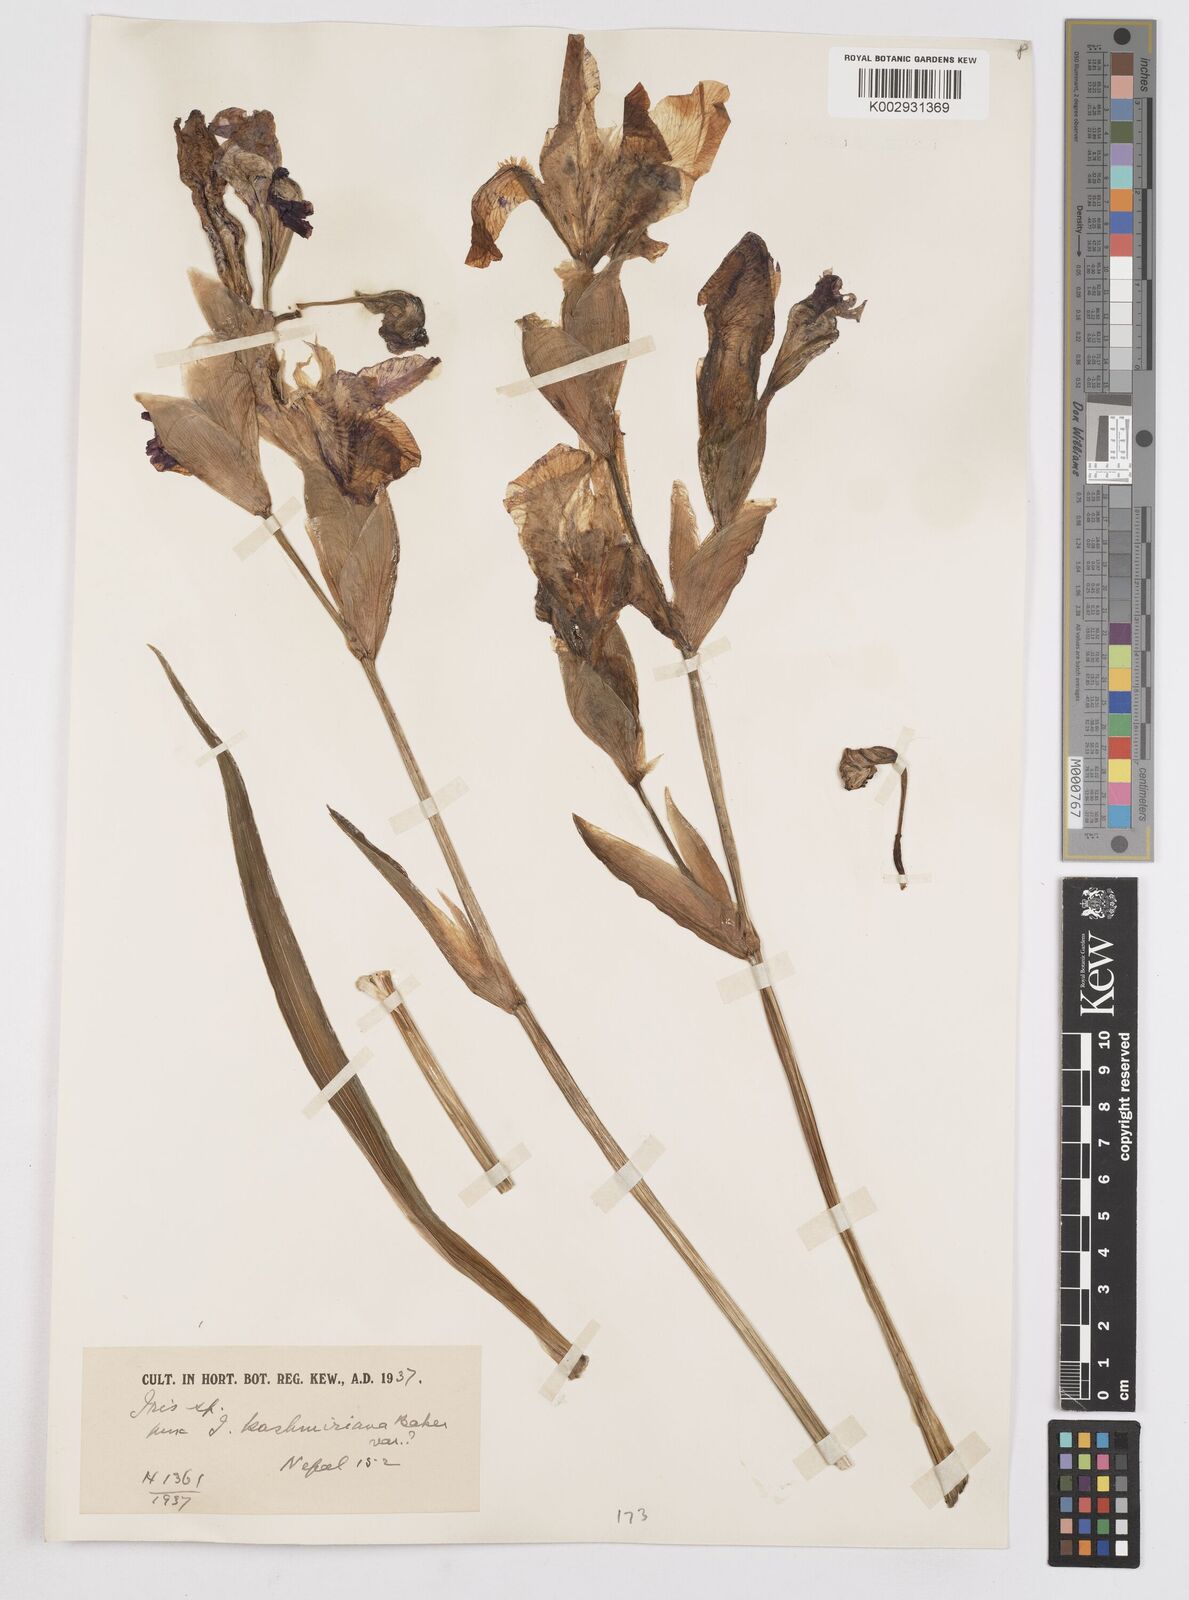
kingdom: Plantae
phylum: Tracheophyta
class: Liliopsida
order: Asparagales
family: Iridaceae
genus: Iris
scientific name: Iris kashmiriana
